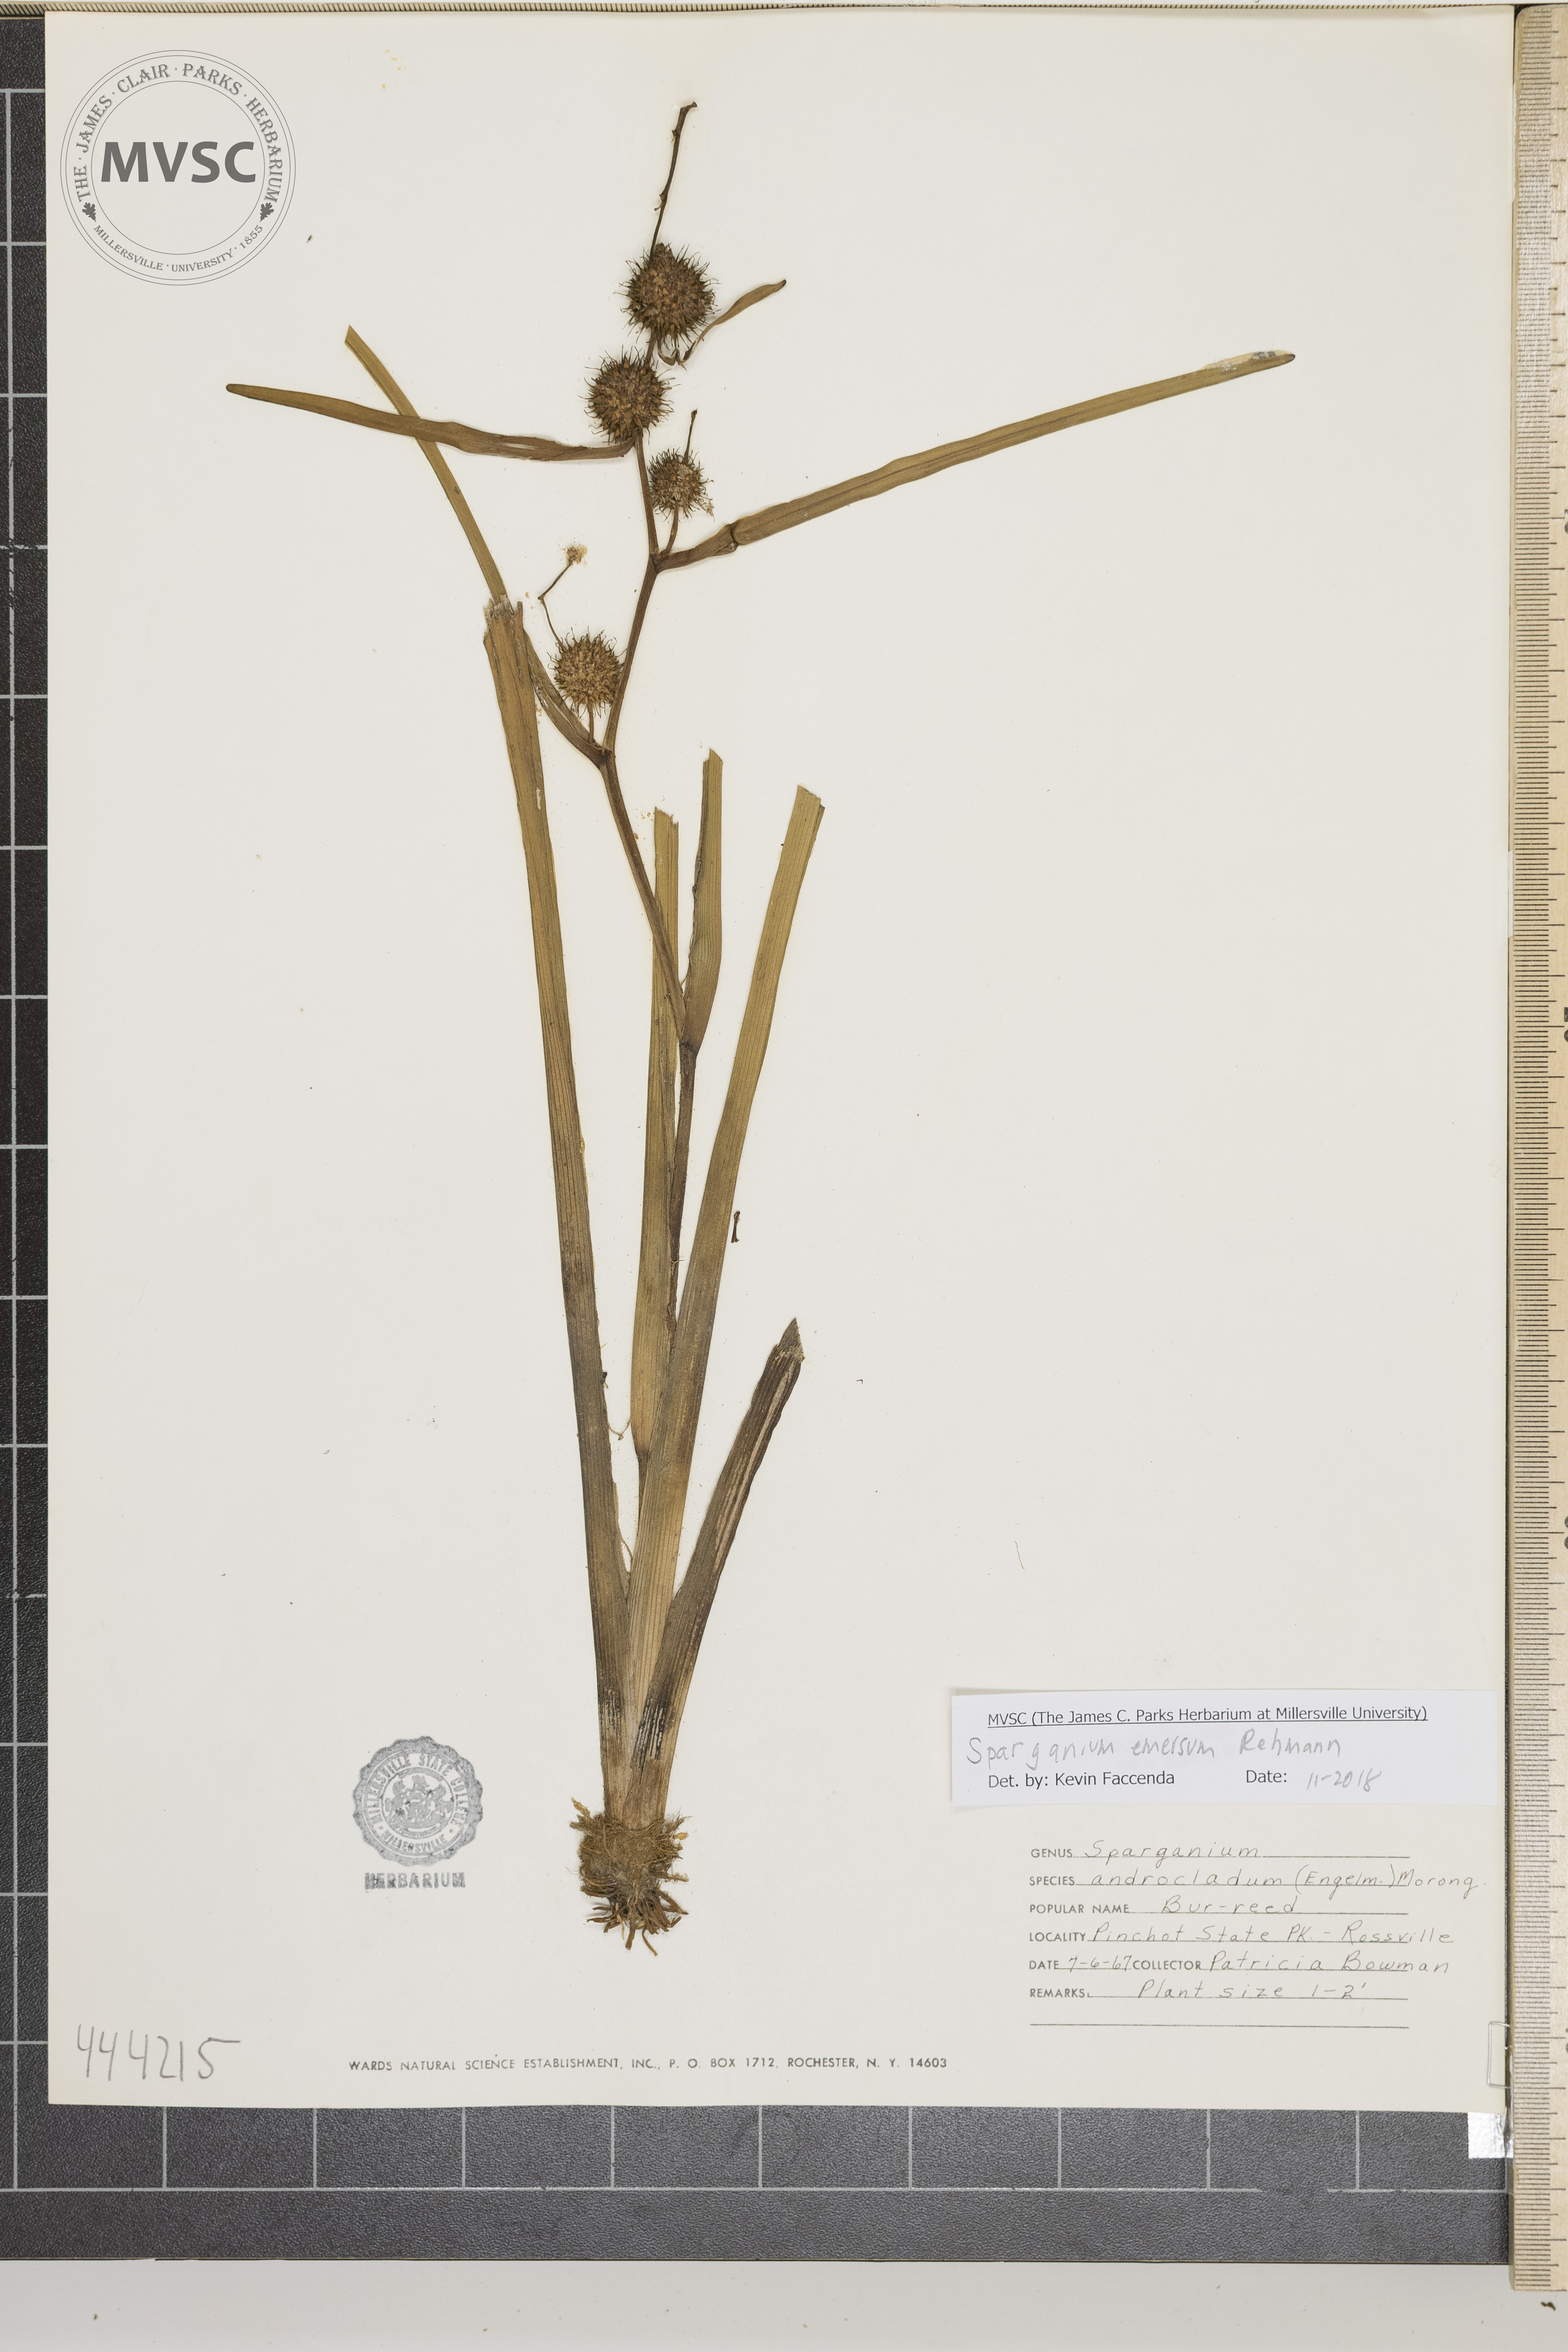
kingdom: Plantae
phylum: Tracheophyta
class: Liliopsida
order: Poales
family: Typhaceae
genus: Sparganium
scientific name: Sparganium americanum
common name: American burreed
